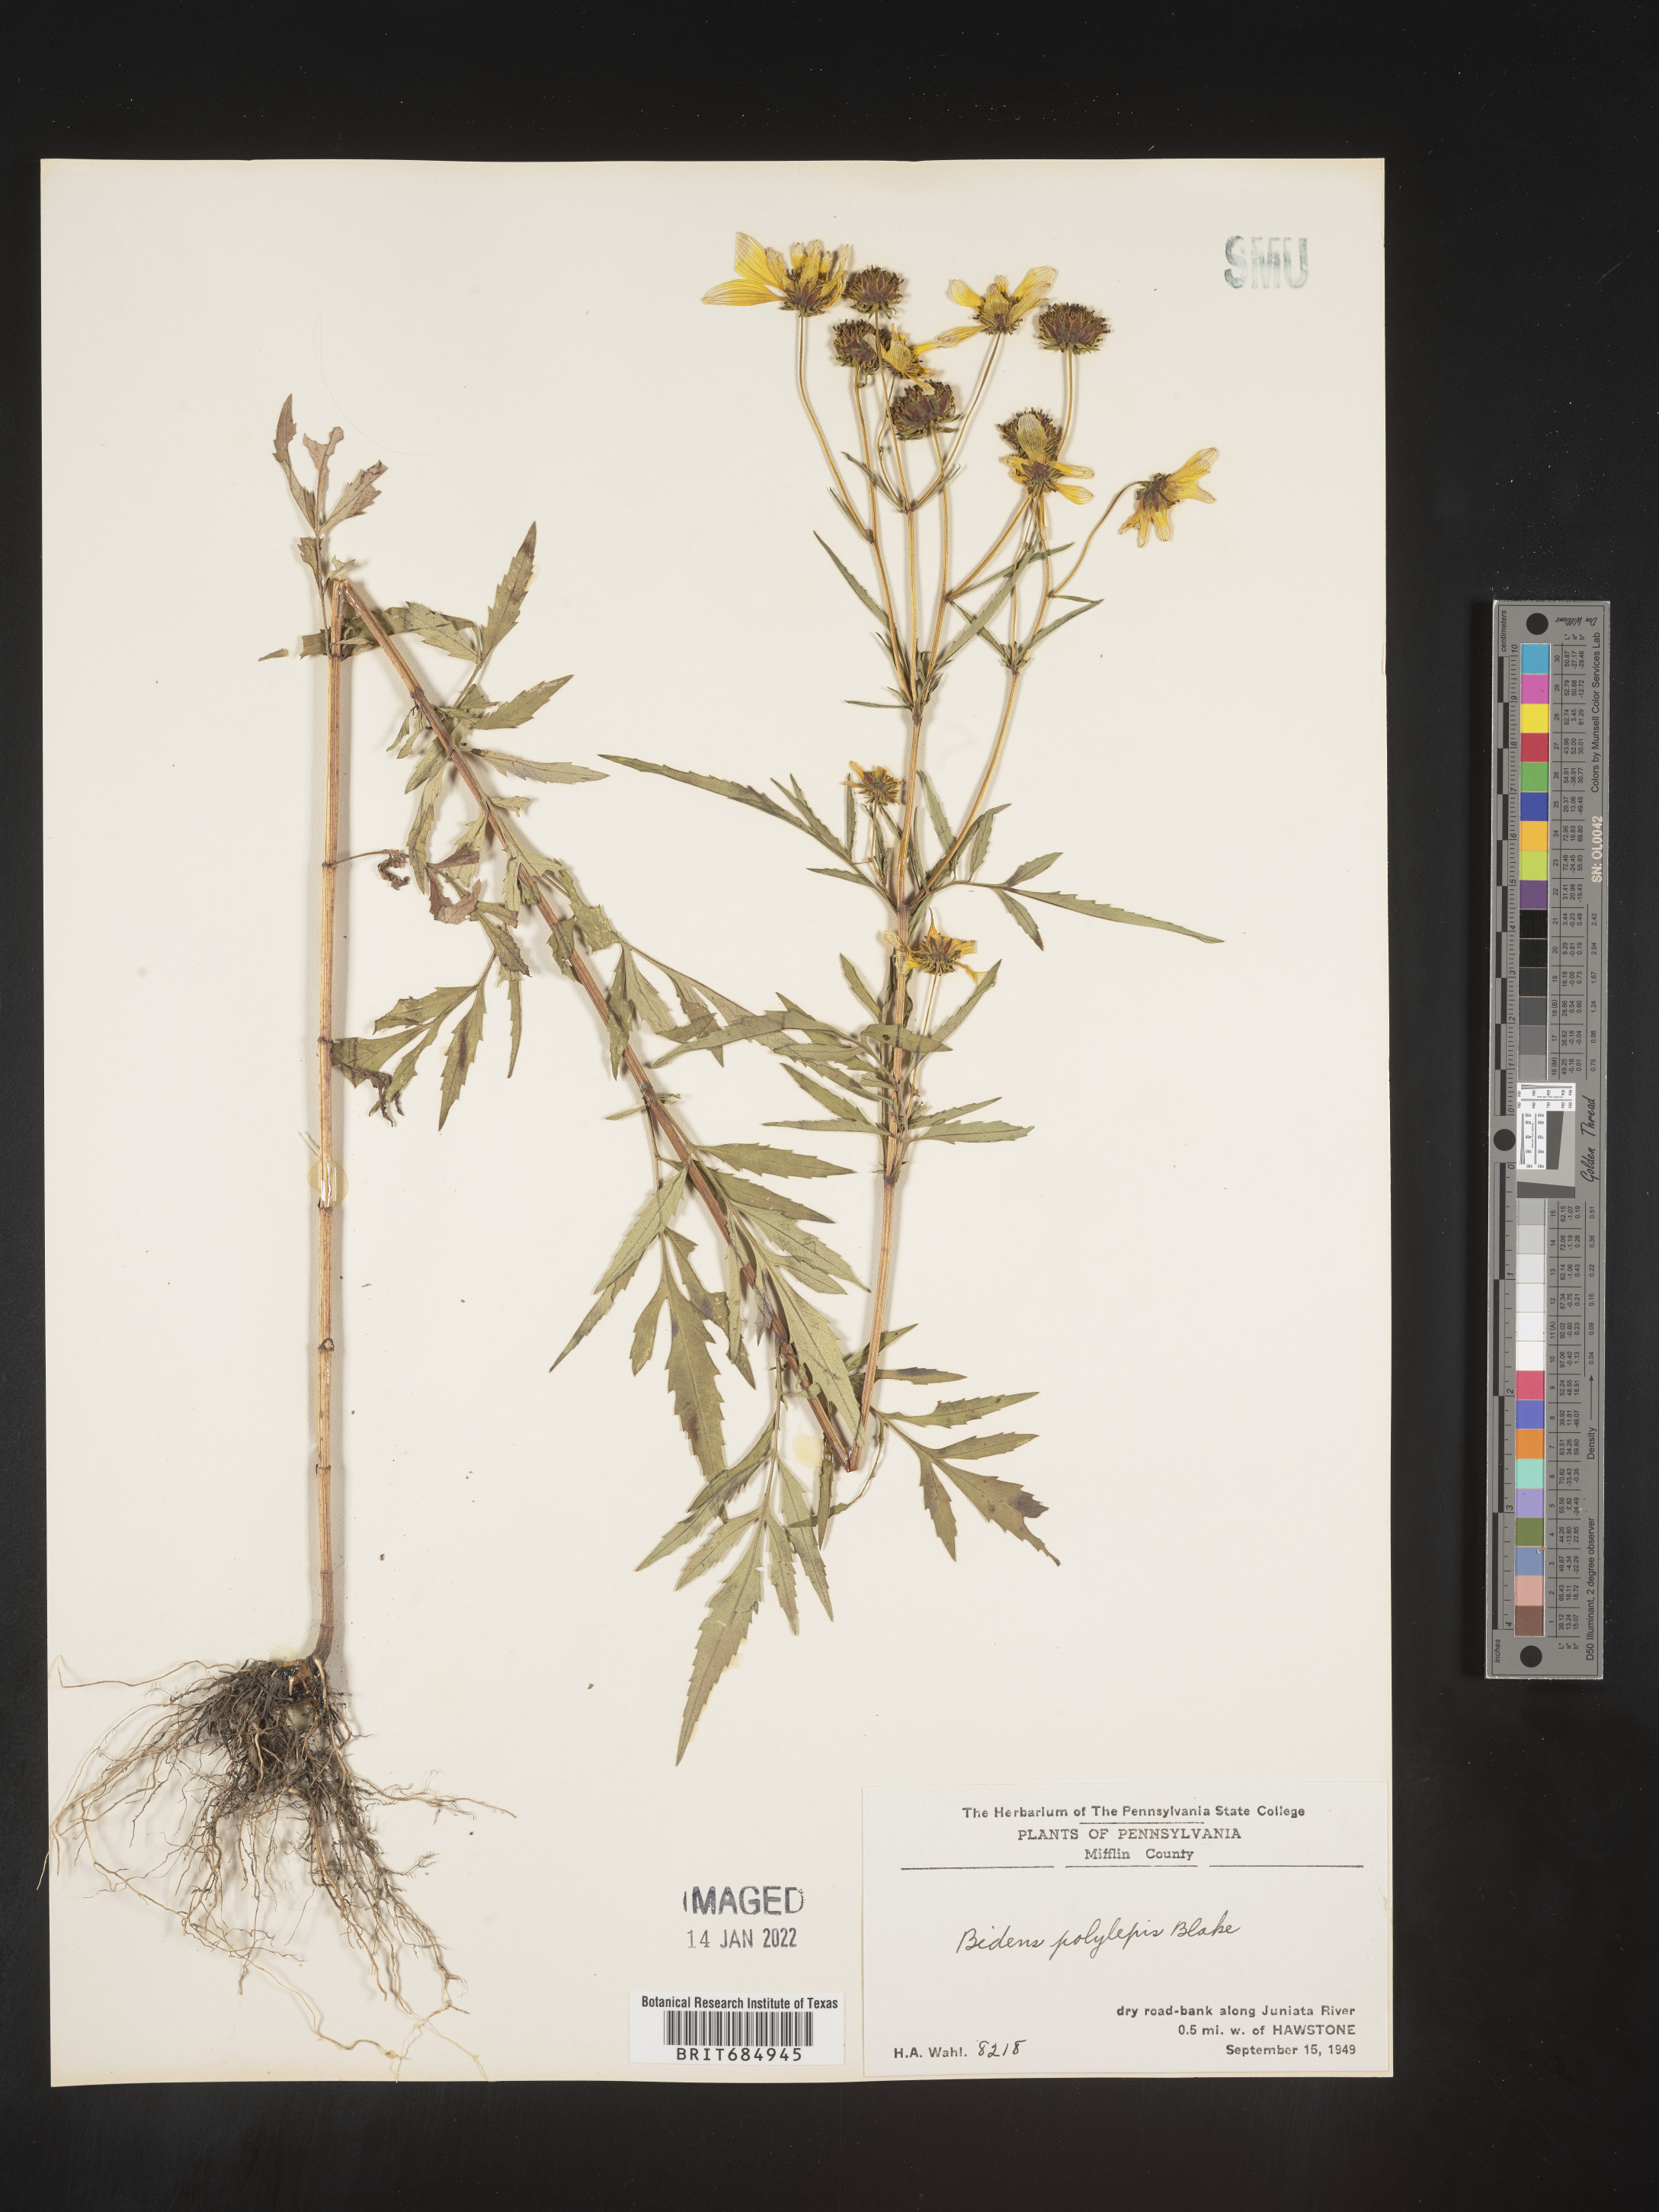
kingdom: Plantae
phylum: Tracheophyta
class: Magnoliopsida
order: Asterales
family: Asteraceae
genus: Bidens
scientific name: Bidens polylepis
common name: Awnless beggarticks
